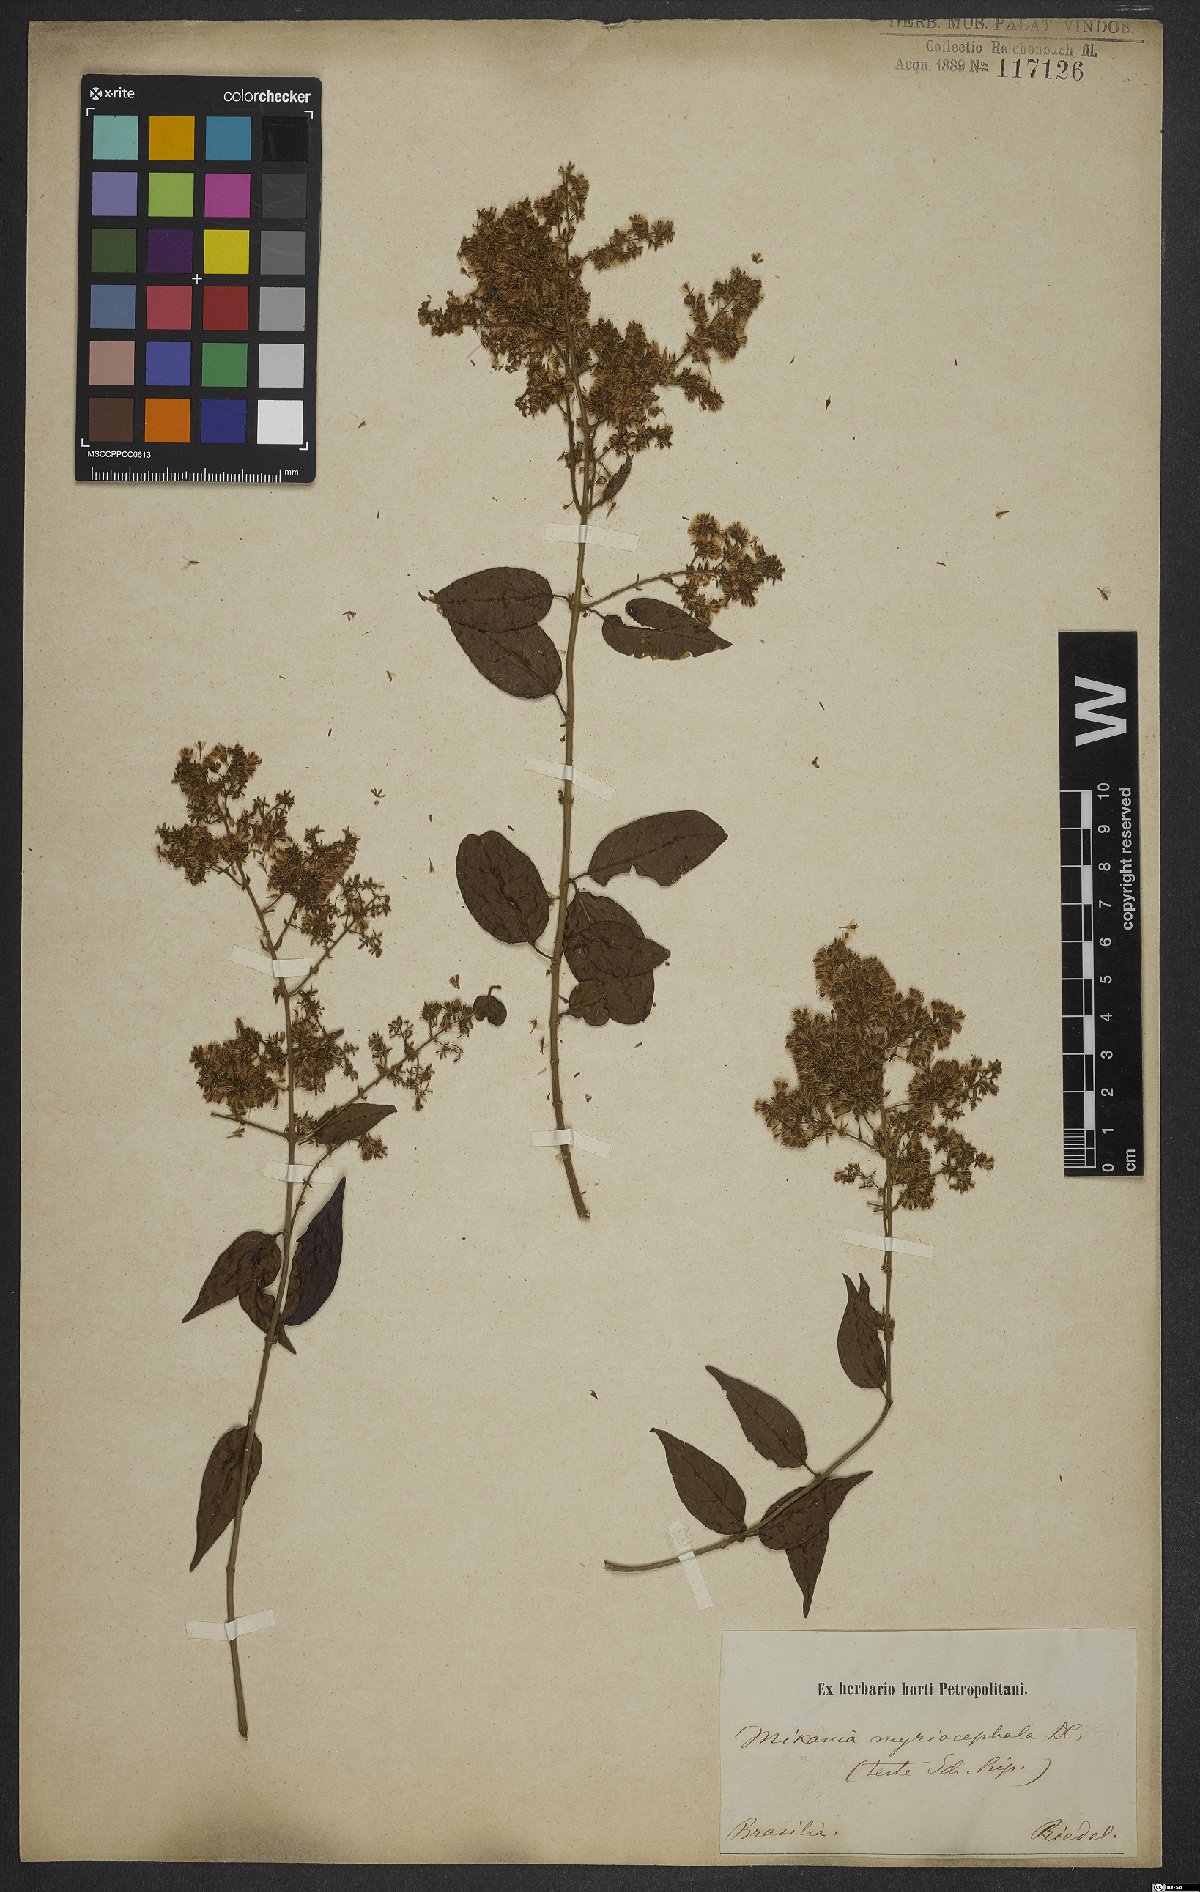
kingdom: Plantae
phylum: Tracheophyta
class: Magnoliopsida
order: Asterales
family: Asteraceae
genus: Mikania
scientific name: Mikania myriocephala
